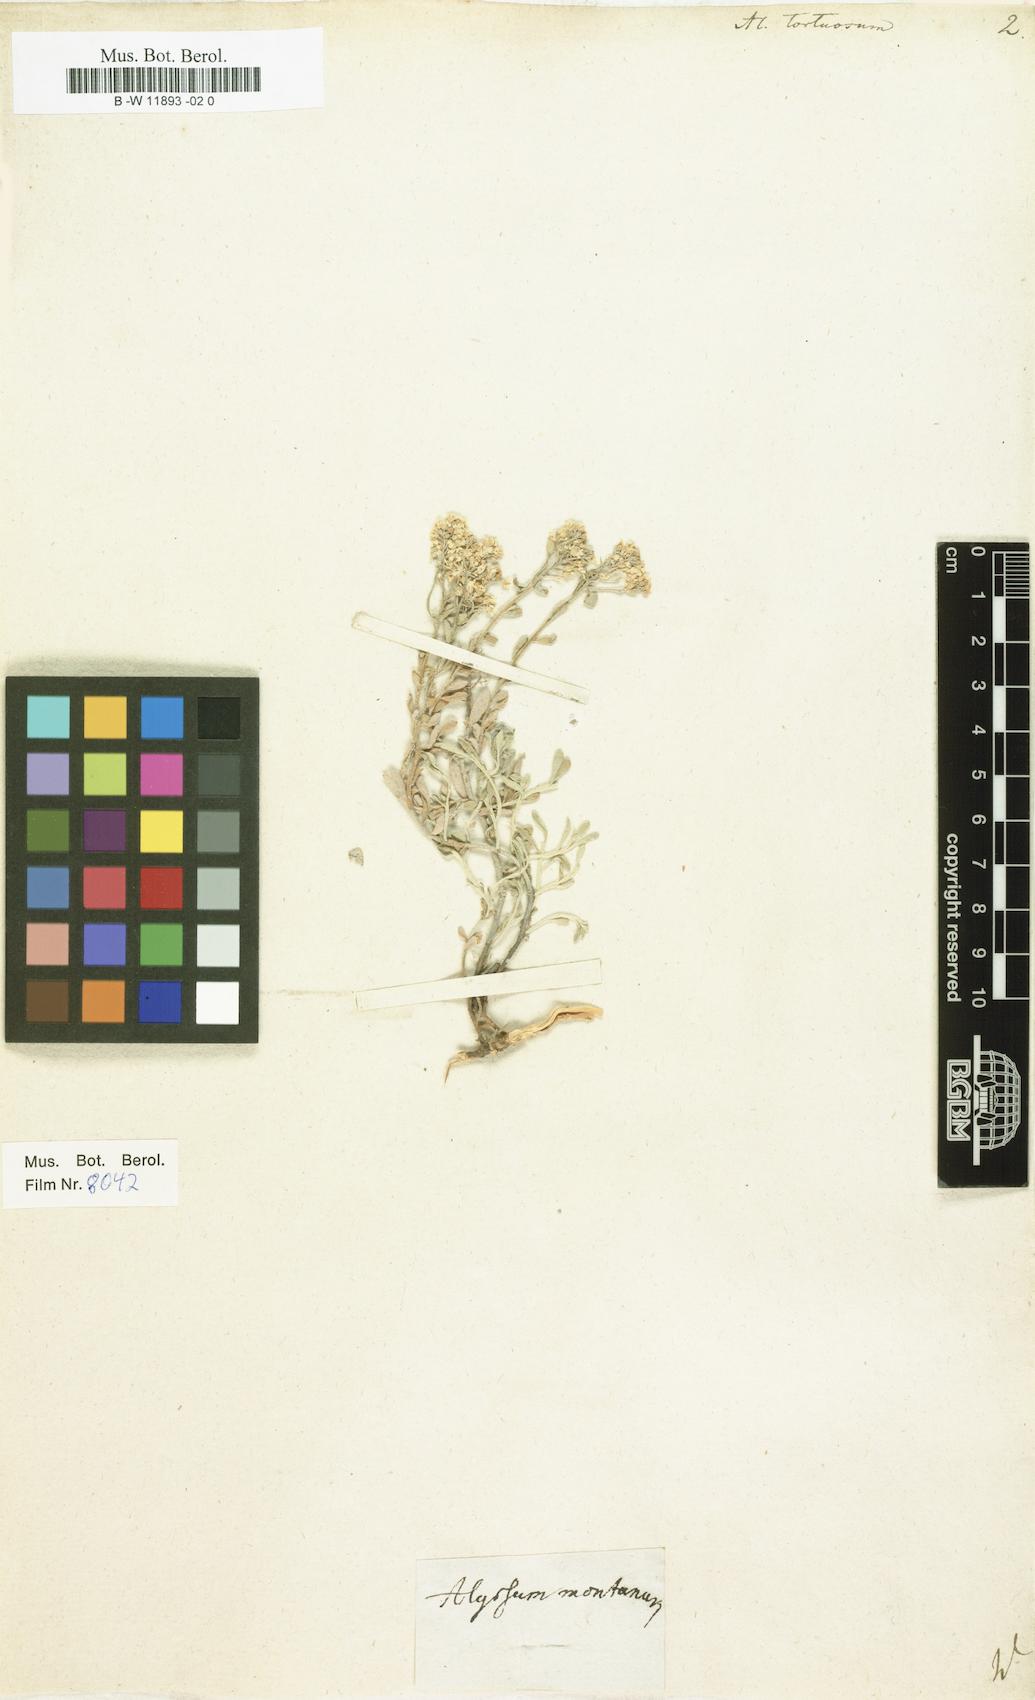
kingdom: Plantae
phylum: Tracheophyta
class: Magnoliopsida
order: Brassicales
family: Brassicaceae
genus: Odontarrhena
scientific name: Odontarrhena tortuosa
